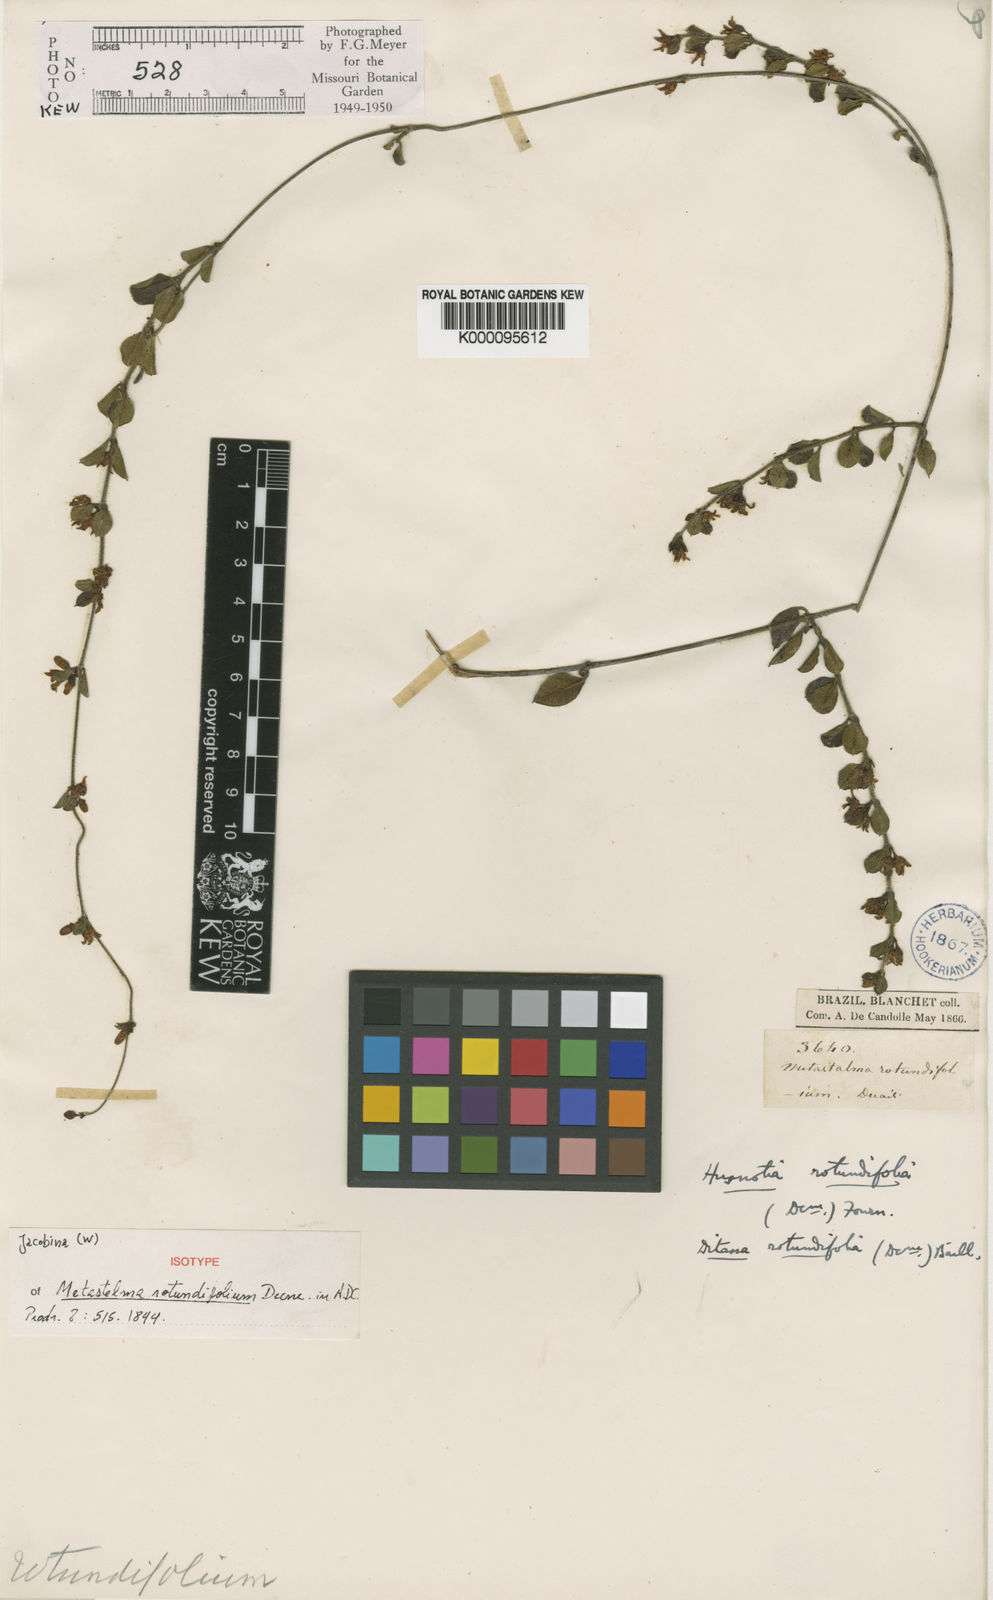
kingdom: Plantae
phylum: Tracheophyta
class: Magnoliopsida
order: Gentianales
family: Apocynaceae
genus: Ditassa
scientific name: Ditassa
